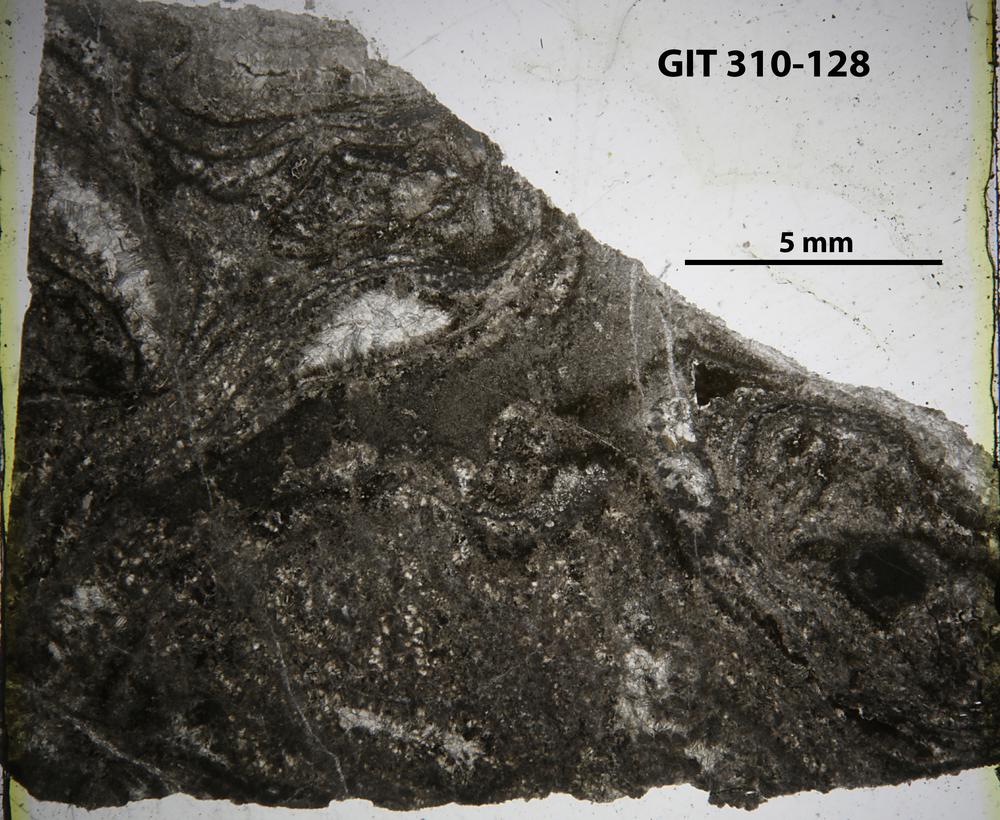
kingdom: Animalia
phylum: Porifera
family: Stylostromatidae
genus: Pachystylostroma
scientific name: Pachystylostroma
